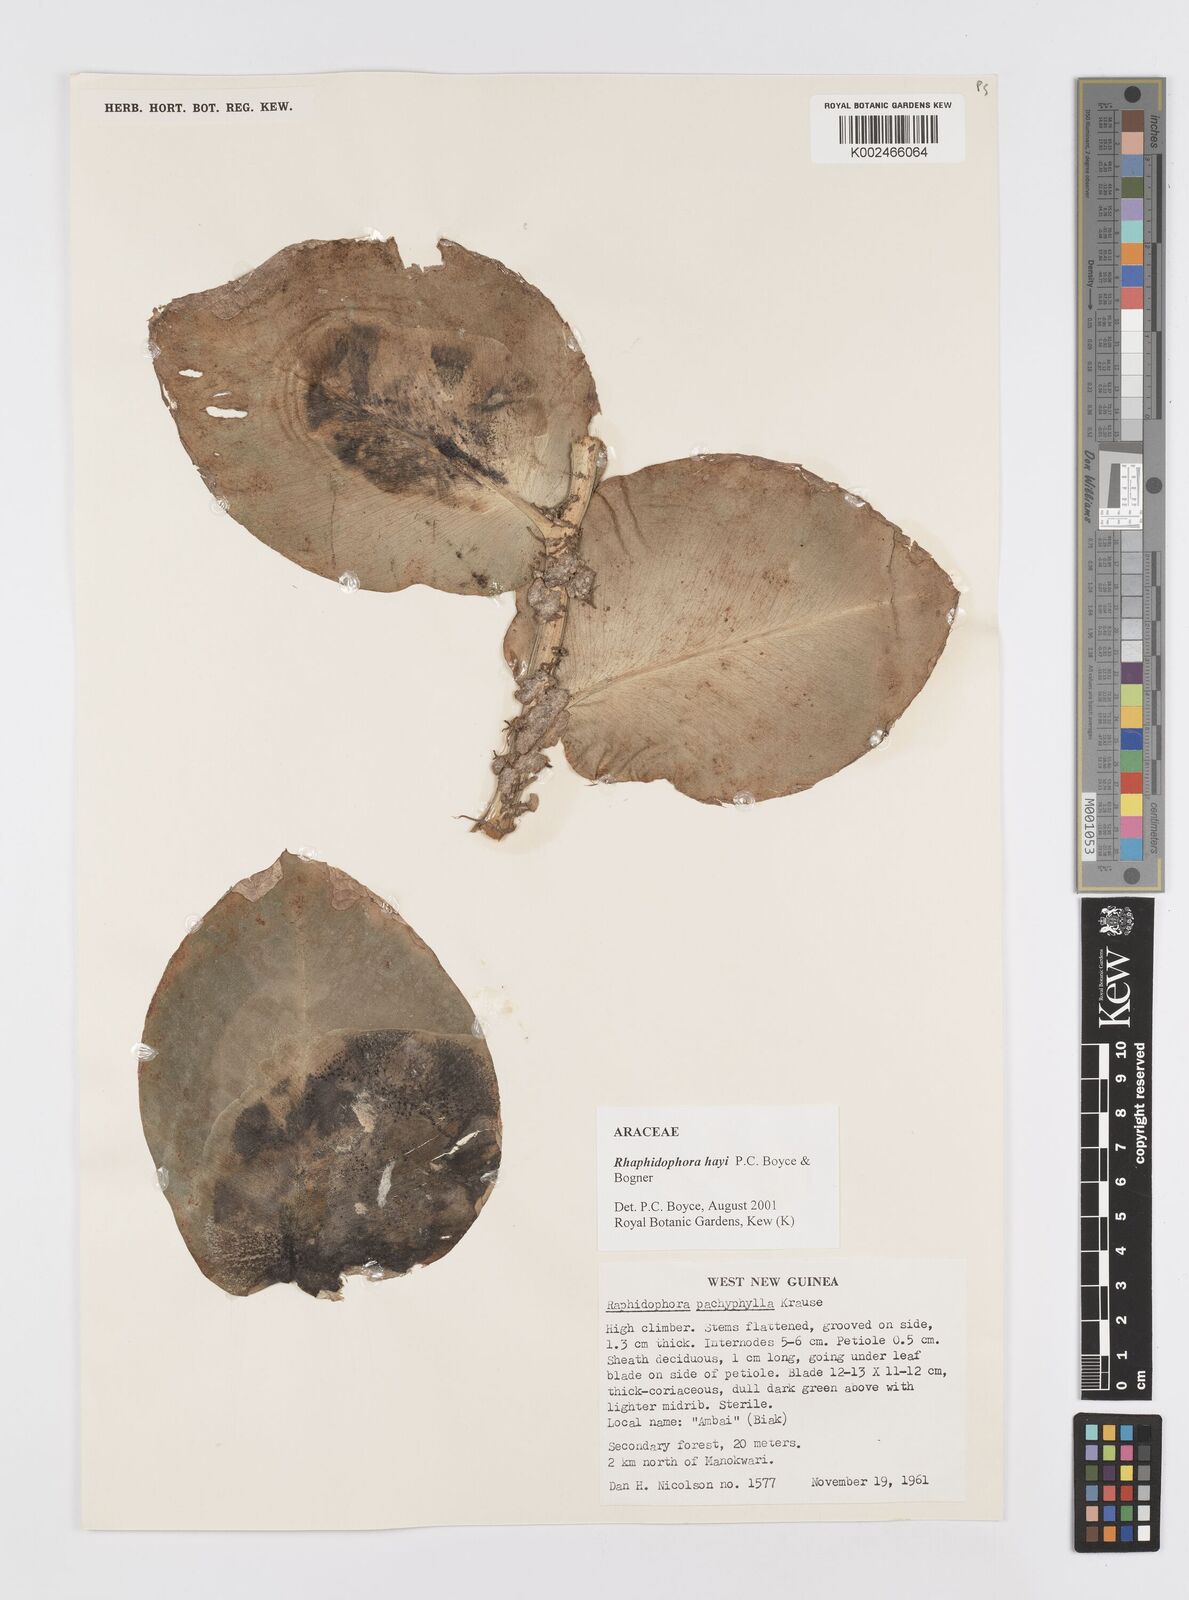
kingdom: Plantae
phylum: Tracheophyta
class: Liliopsida
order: Alismatales
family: Araceae
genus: Rhaphidophora
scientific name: Rhaphidophora hayi
